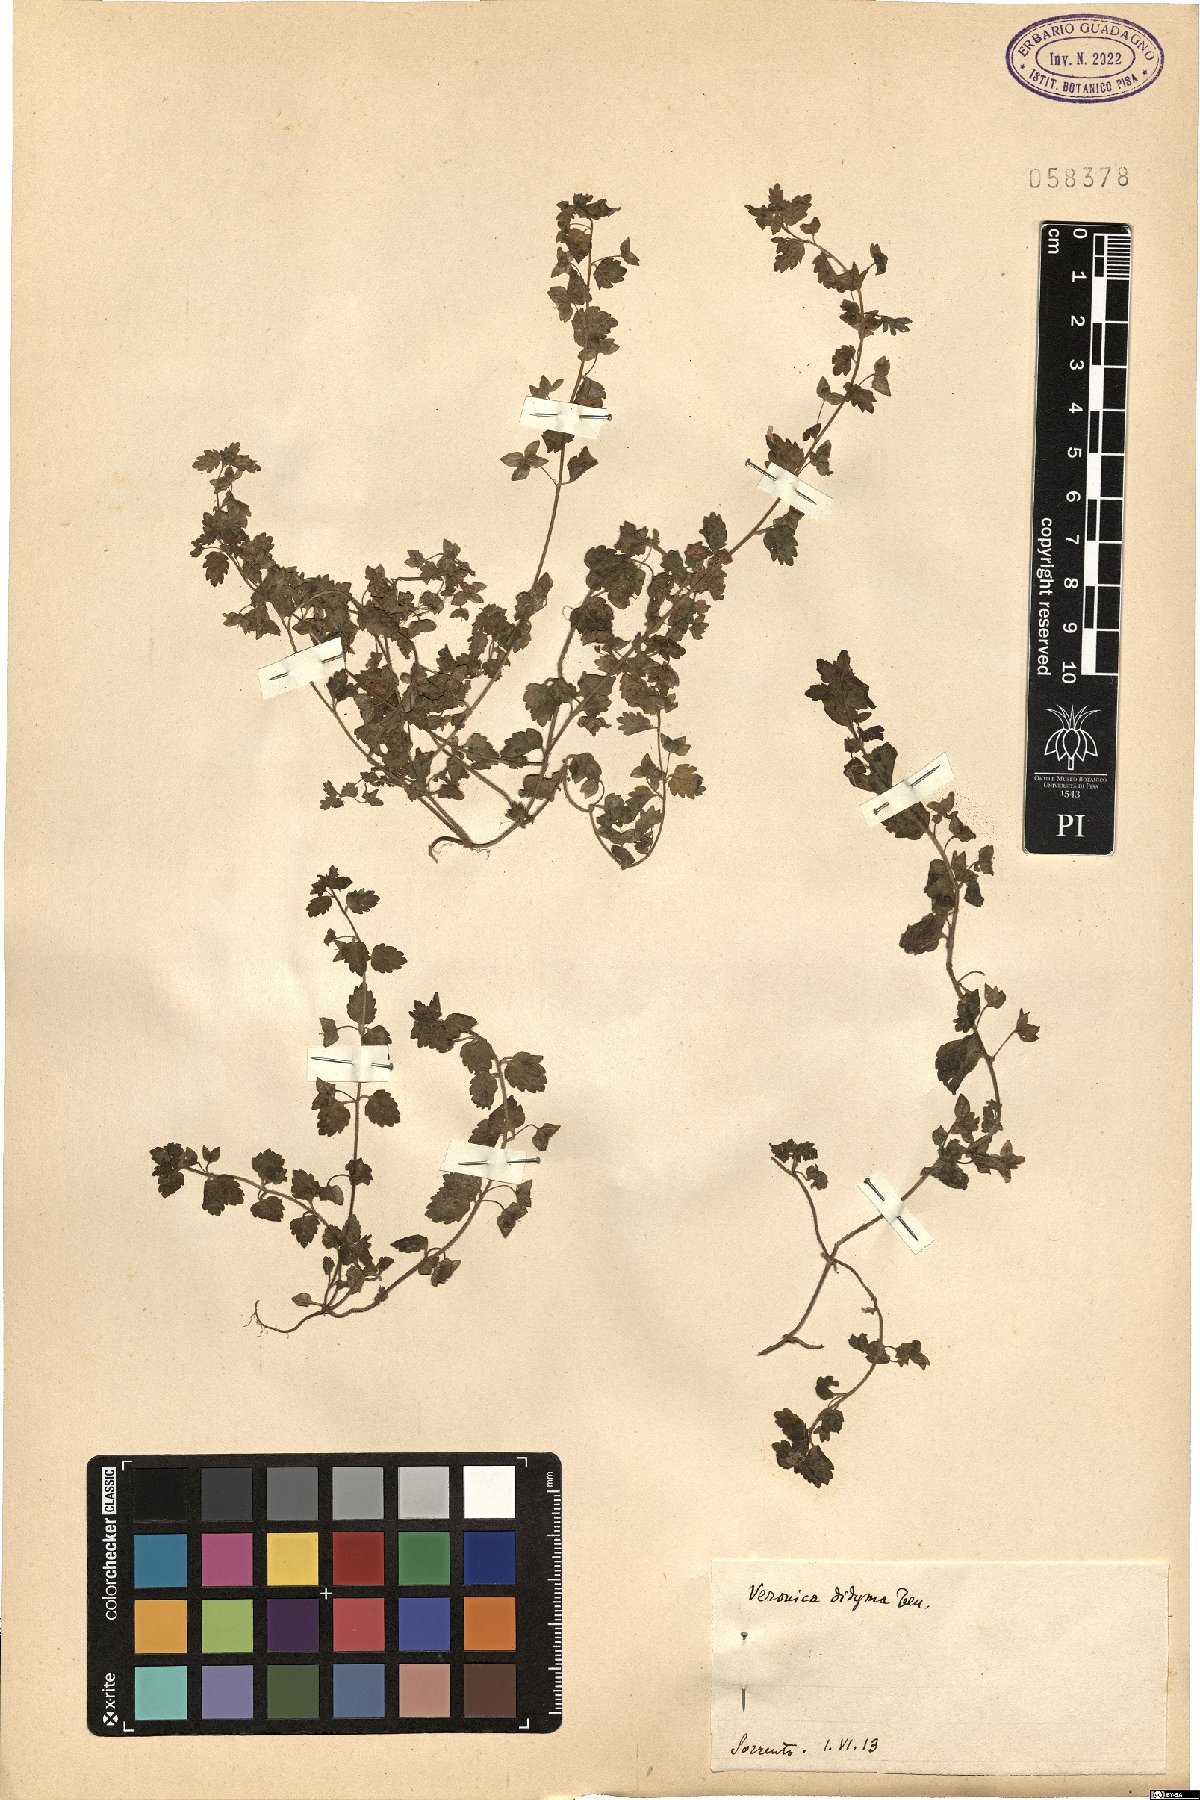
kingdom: Plantae
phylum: Tracheophyta
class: Magnoliopsida
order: Lamiales
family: Plantaginaceae
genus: Veronica
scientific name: Veronica polita
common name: Grey field-speedwell
